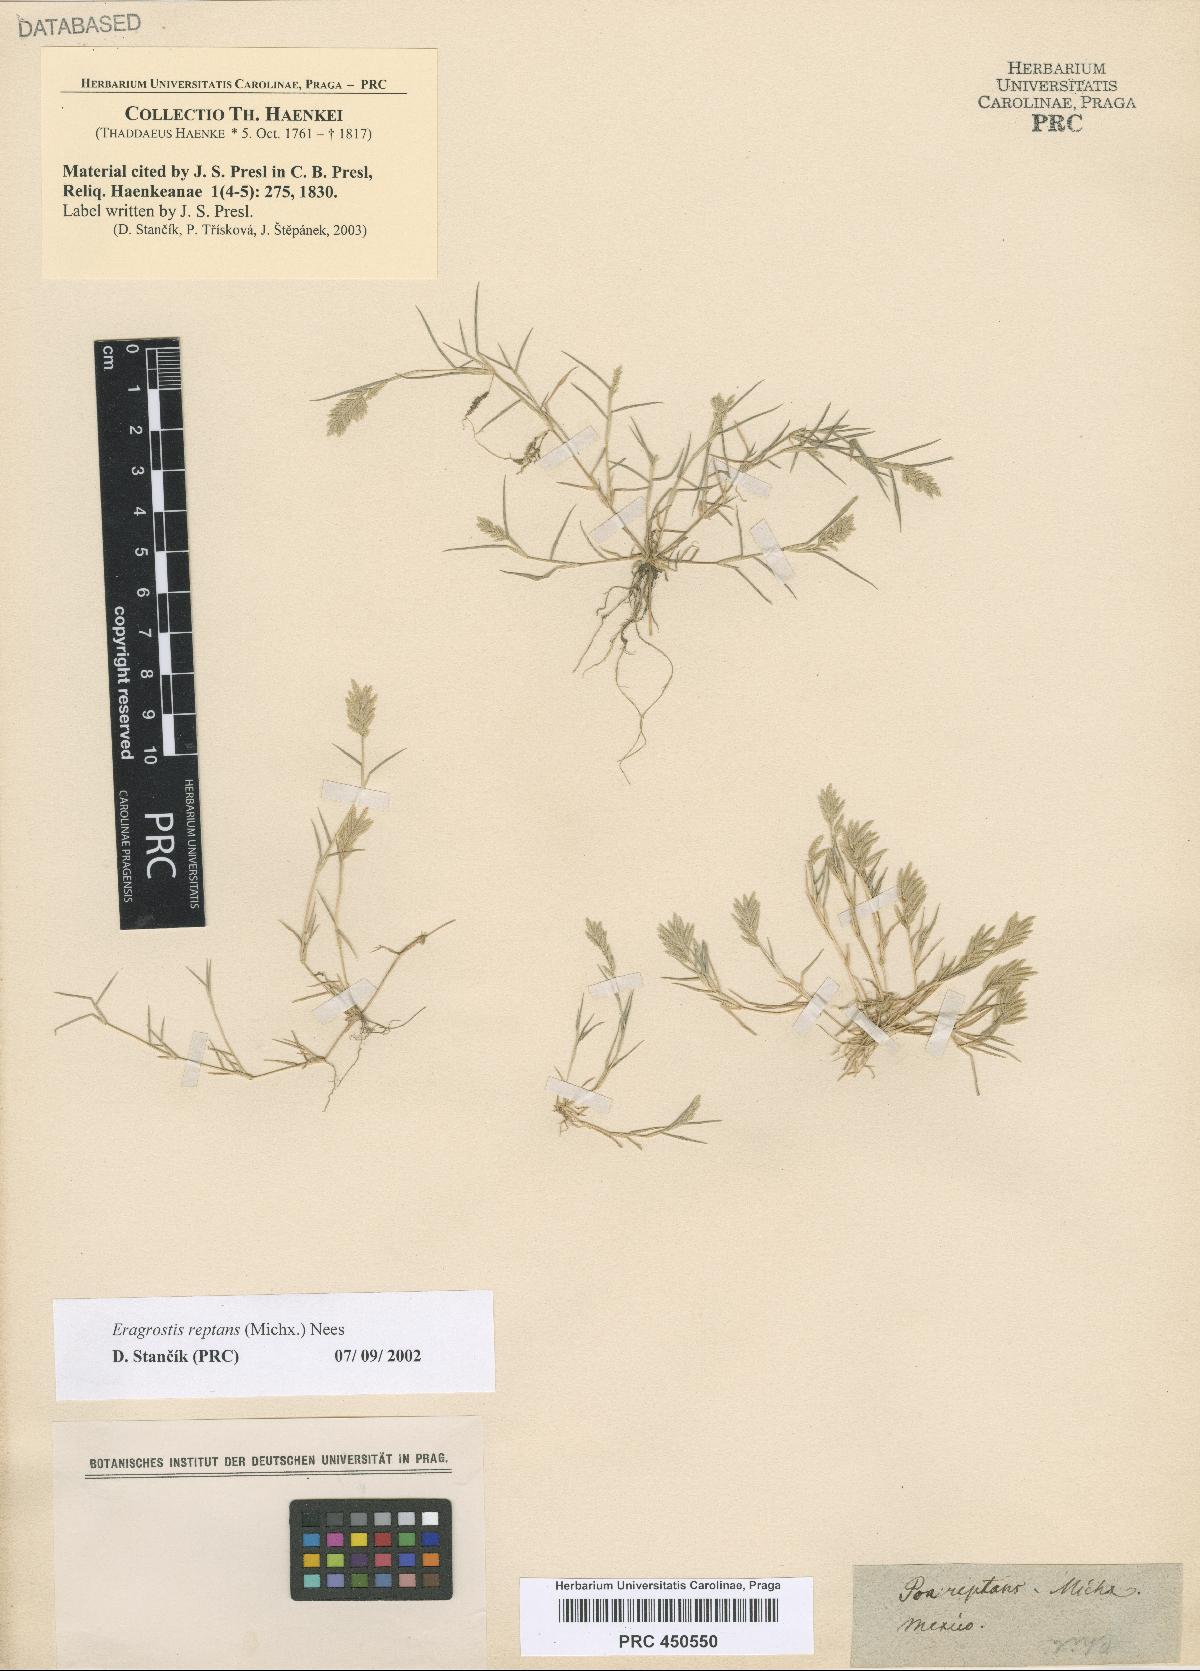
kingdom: Plantae
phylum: Tracheophyta
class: Liliopsida
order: Poales
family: Poaceae
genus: Eragrostis
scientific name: Eragrostis reptans
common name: Creeping love grass
